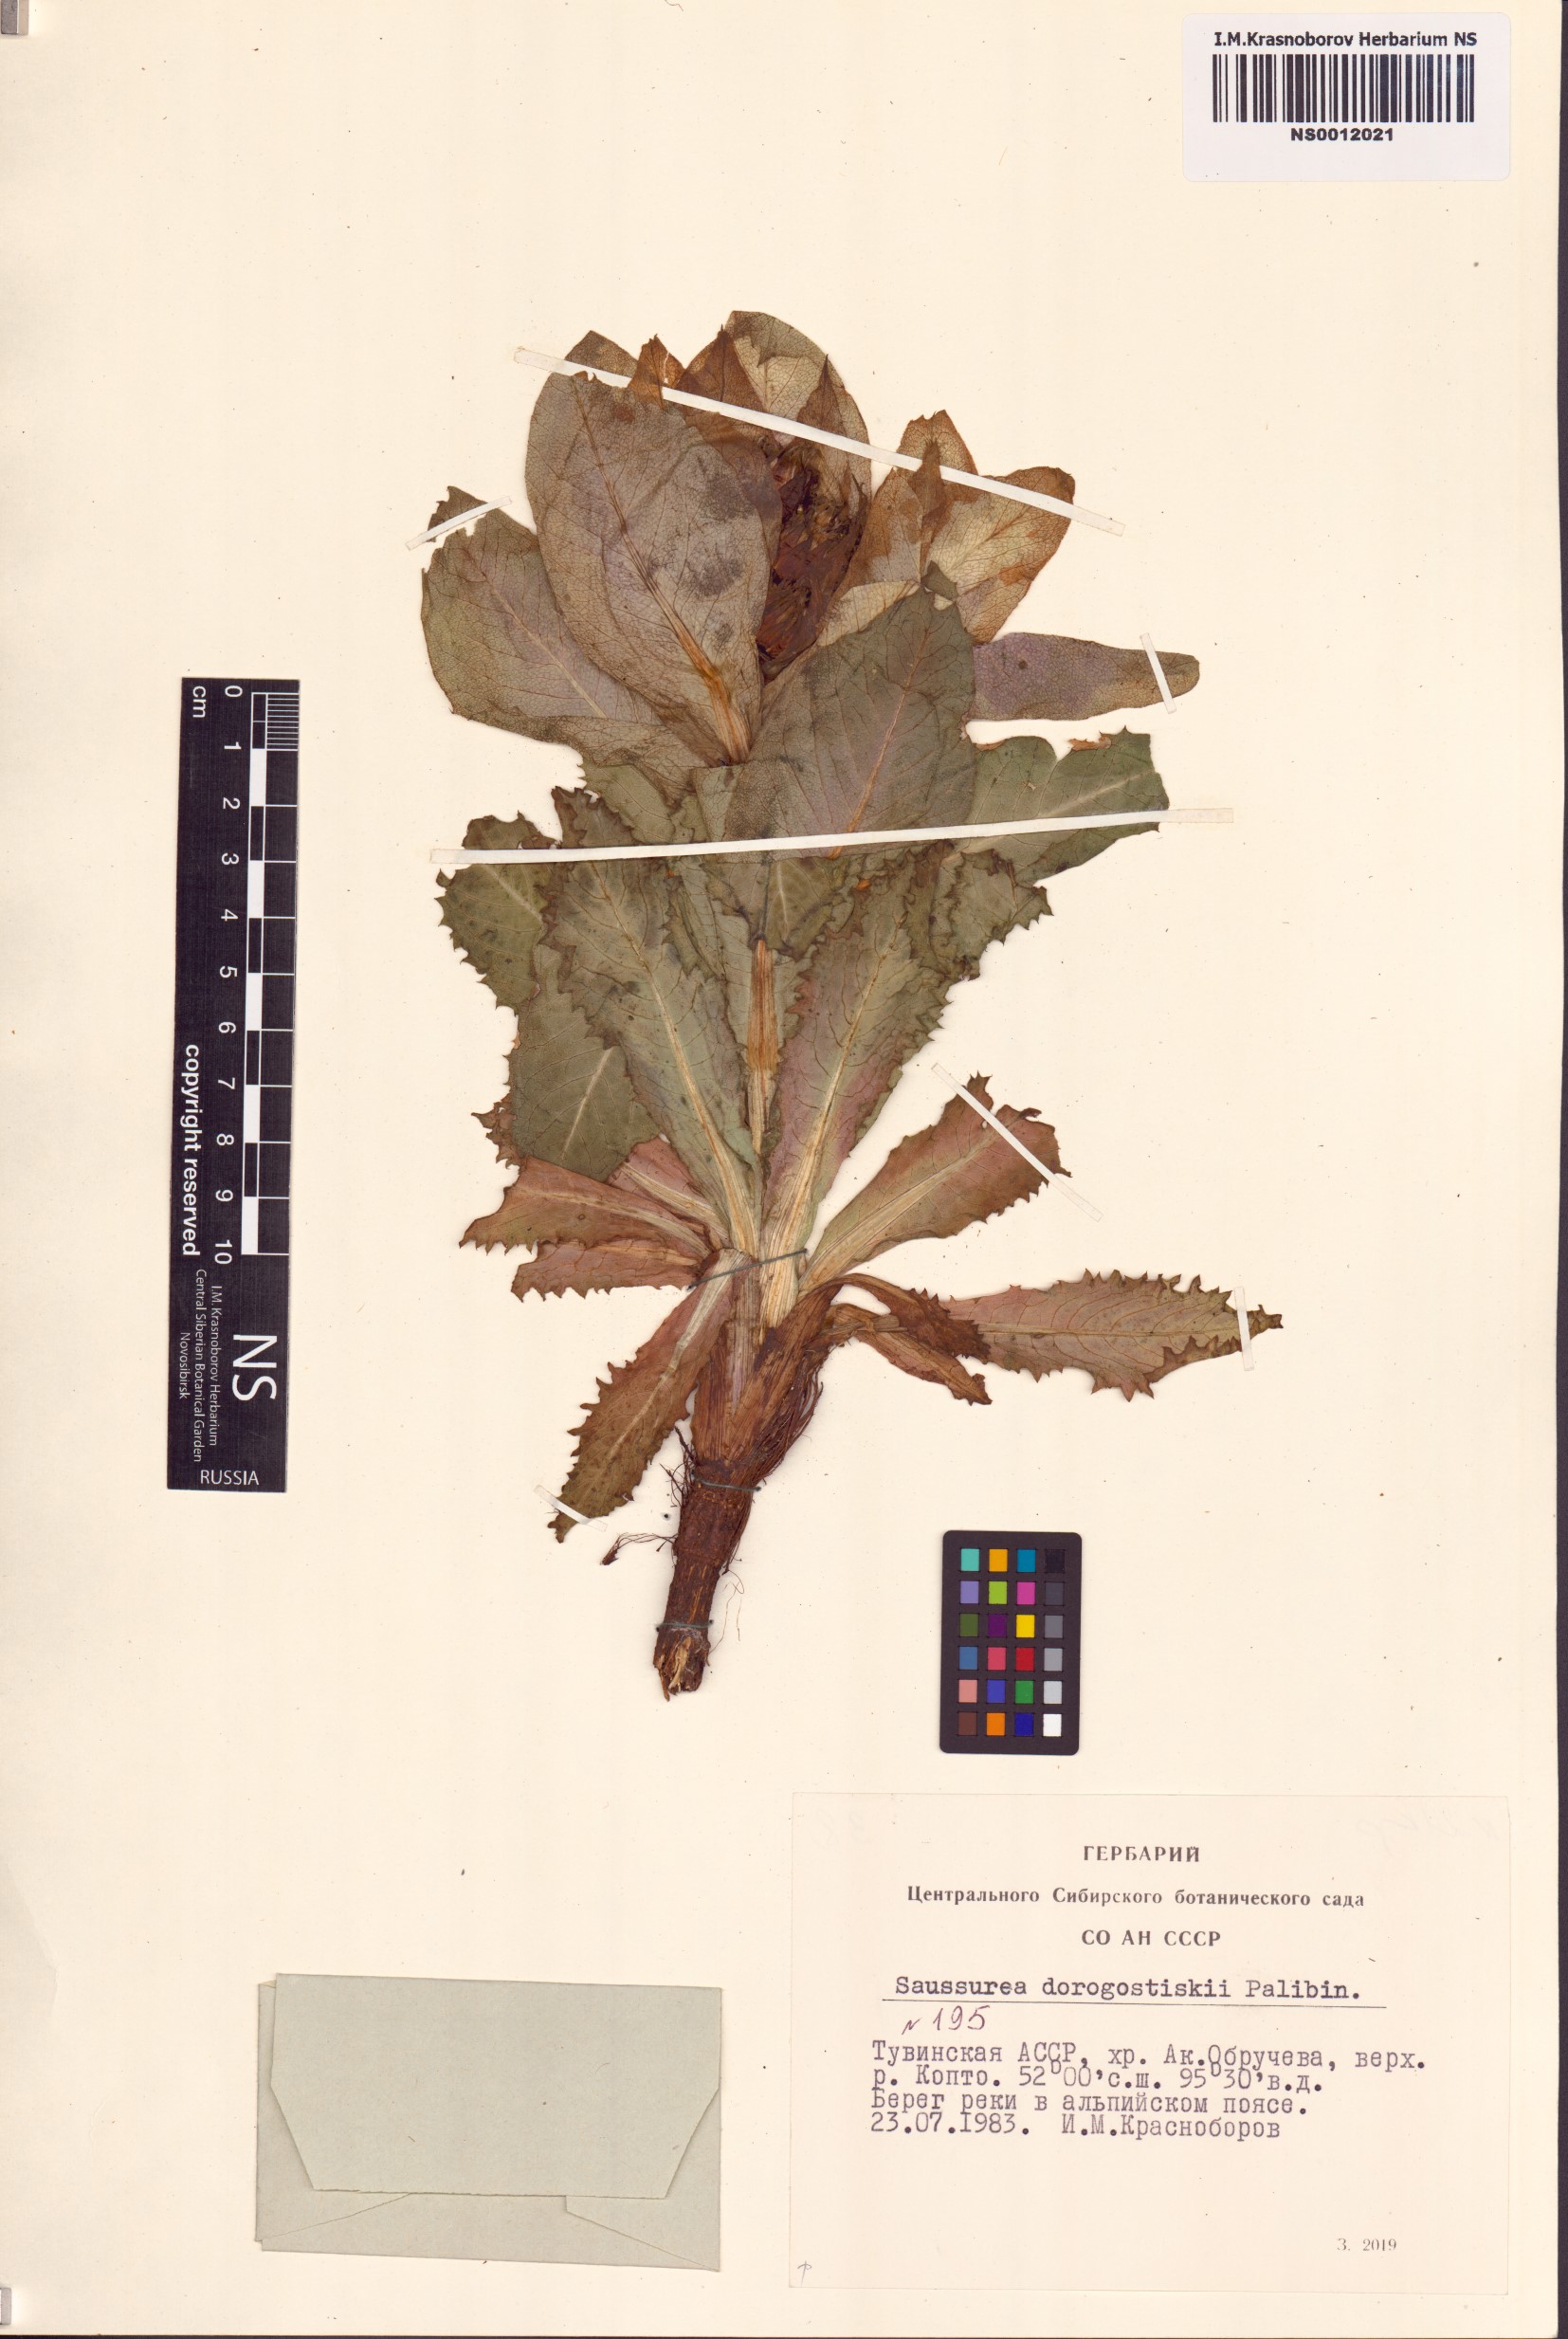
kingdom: Plantae
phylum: Tracheophyta
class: Magnoliopsida
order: Asterales
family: Asteraceae
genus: Saussurea
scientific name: Saussurea involucrata
